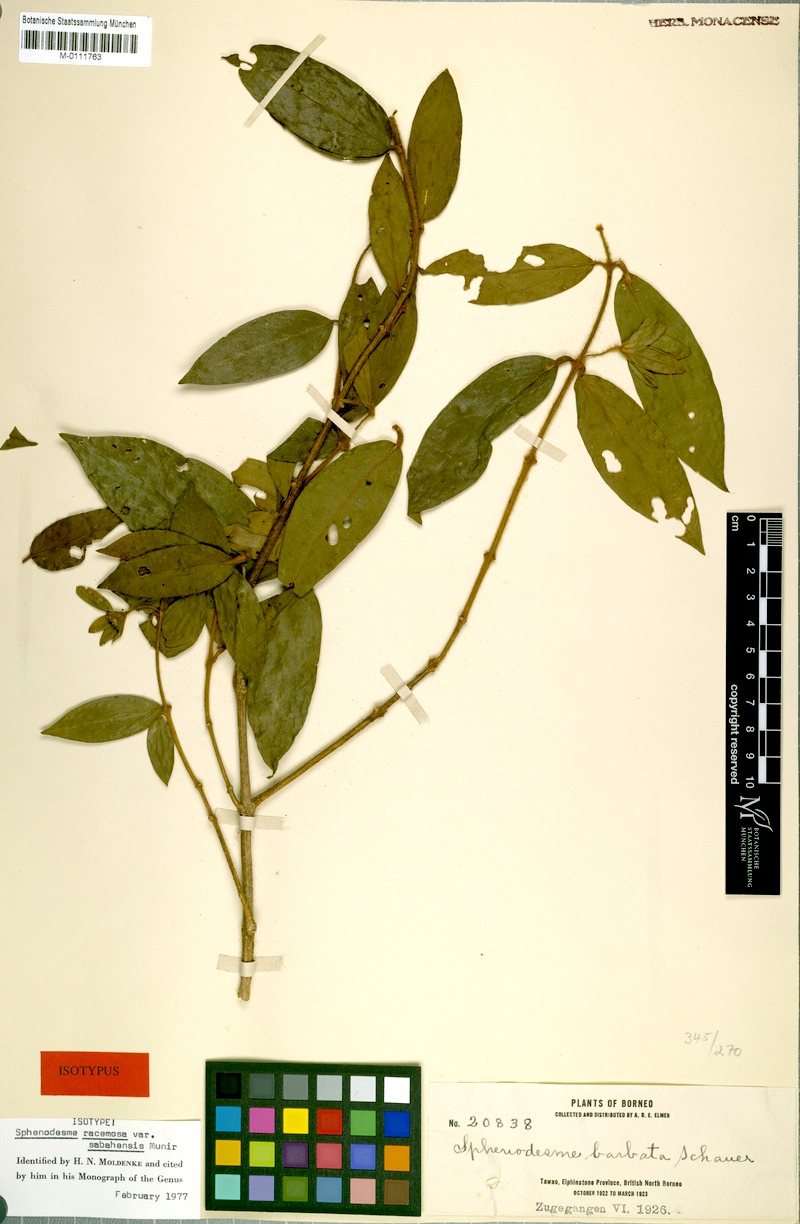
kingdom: Plantae
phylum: Tracheophyta
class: Magnoliopsida
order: Lamiales
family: Lamiaceae
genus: Sphenodesme
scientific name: Sphenodesme racemosa
